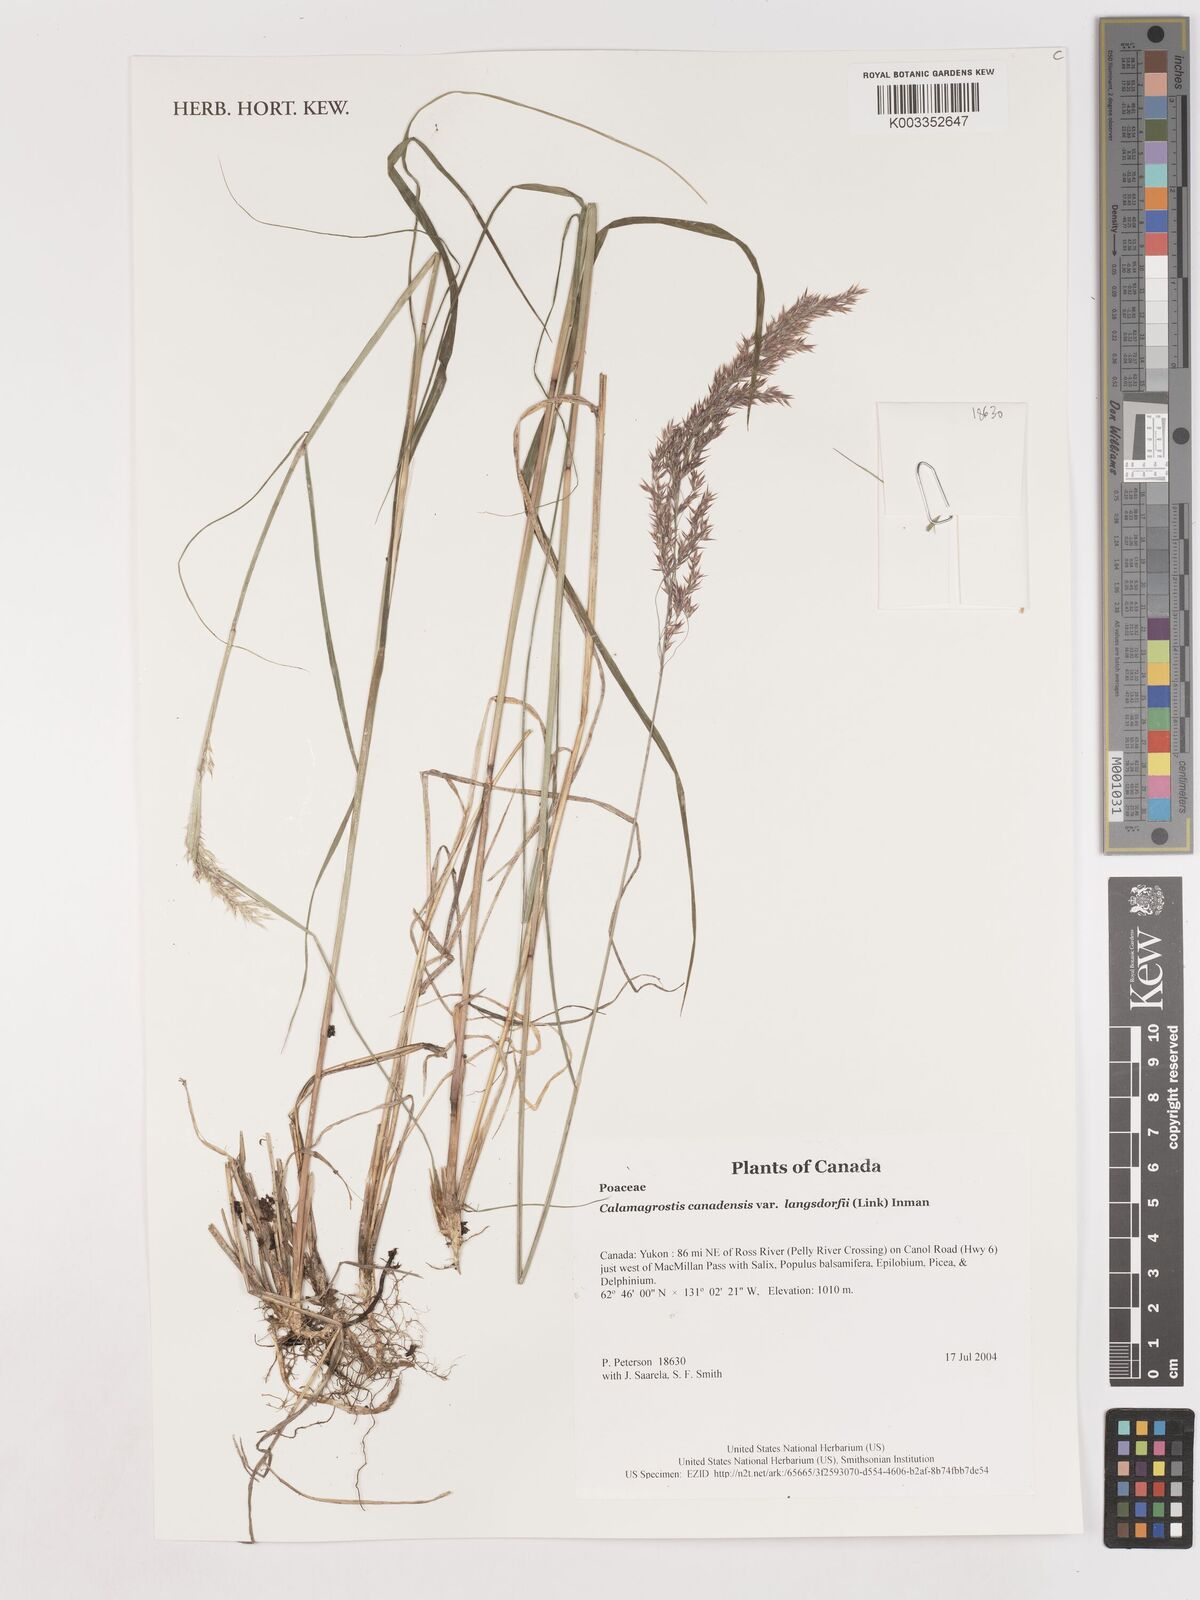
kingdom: Plantae
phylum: Tracheophyta
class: Liliopsida
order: Poales
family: Poaceae
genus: Calamagrostis
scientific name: Calamagrostis canadensis
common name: Canada bluejoint
